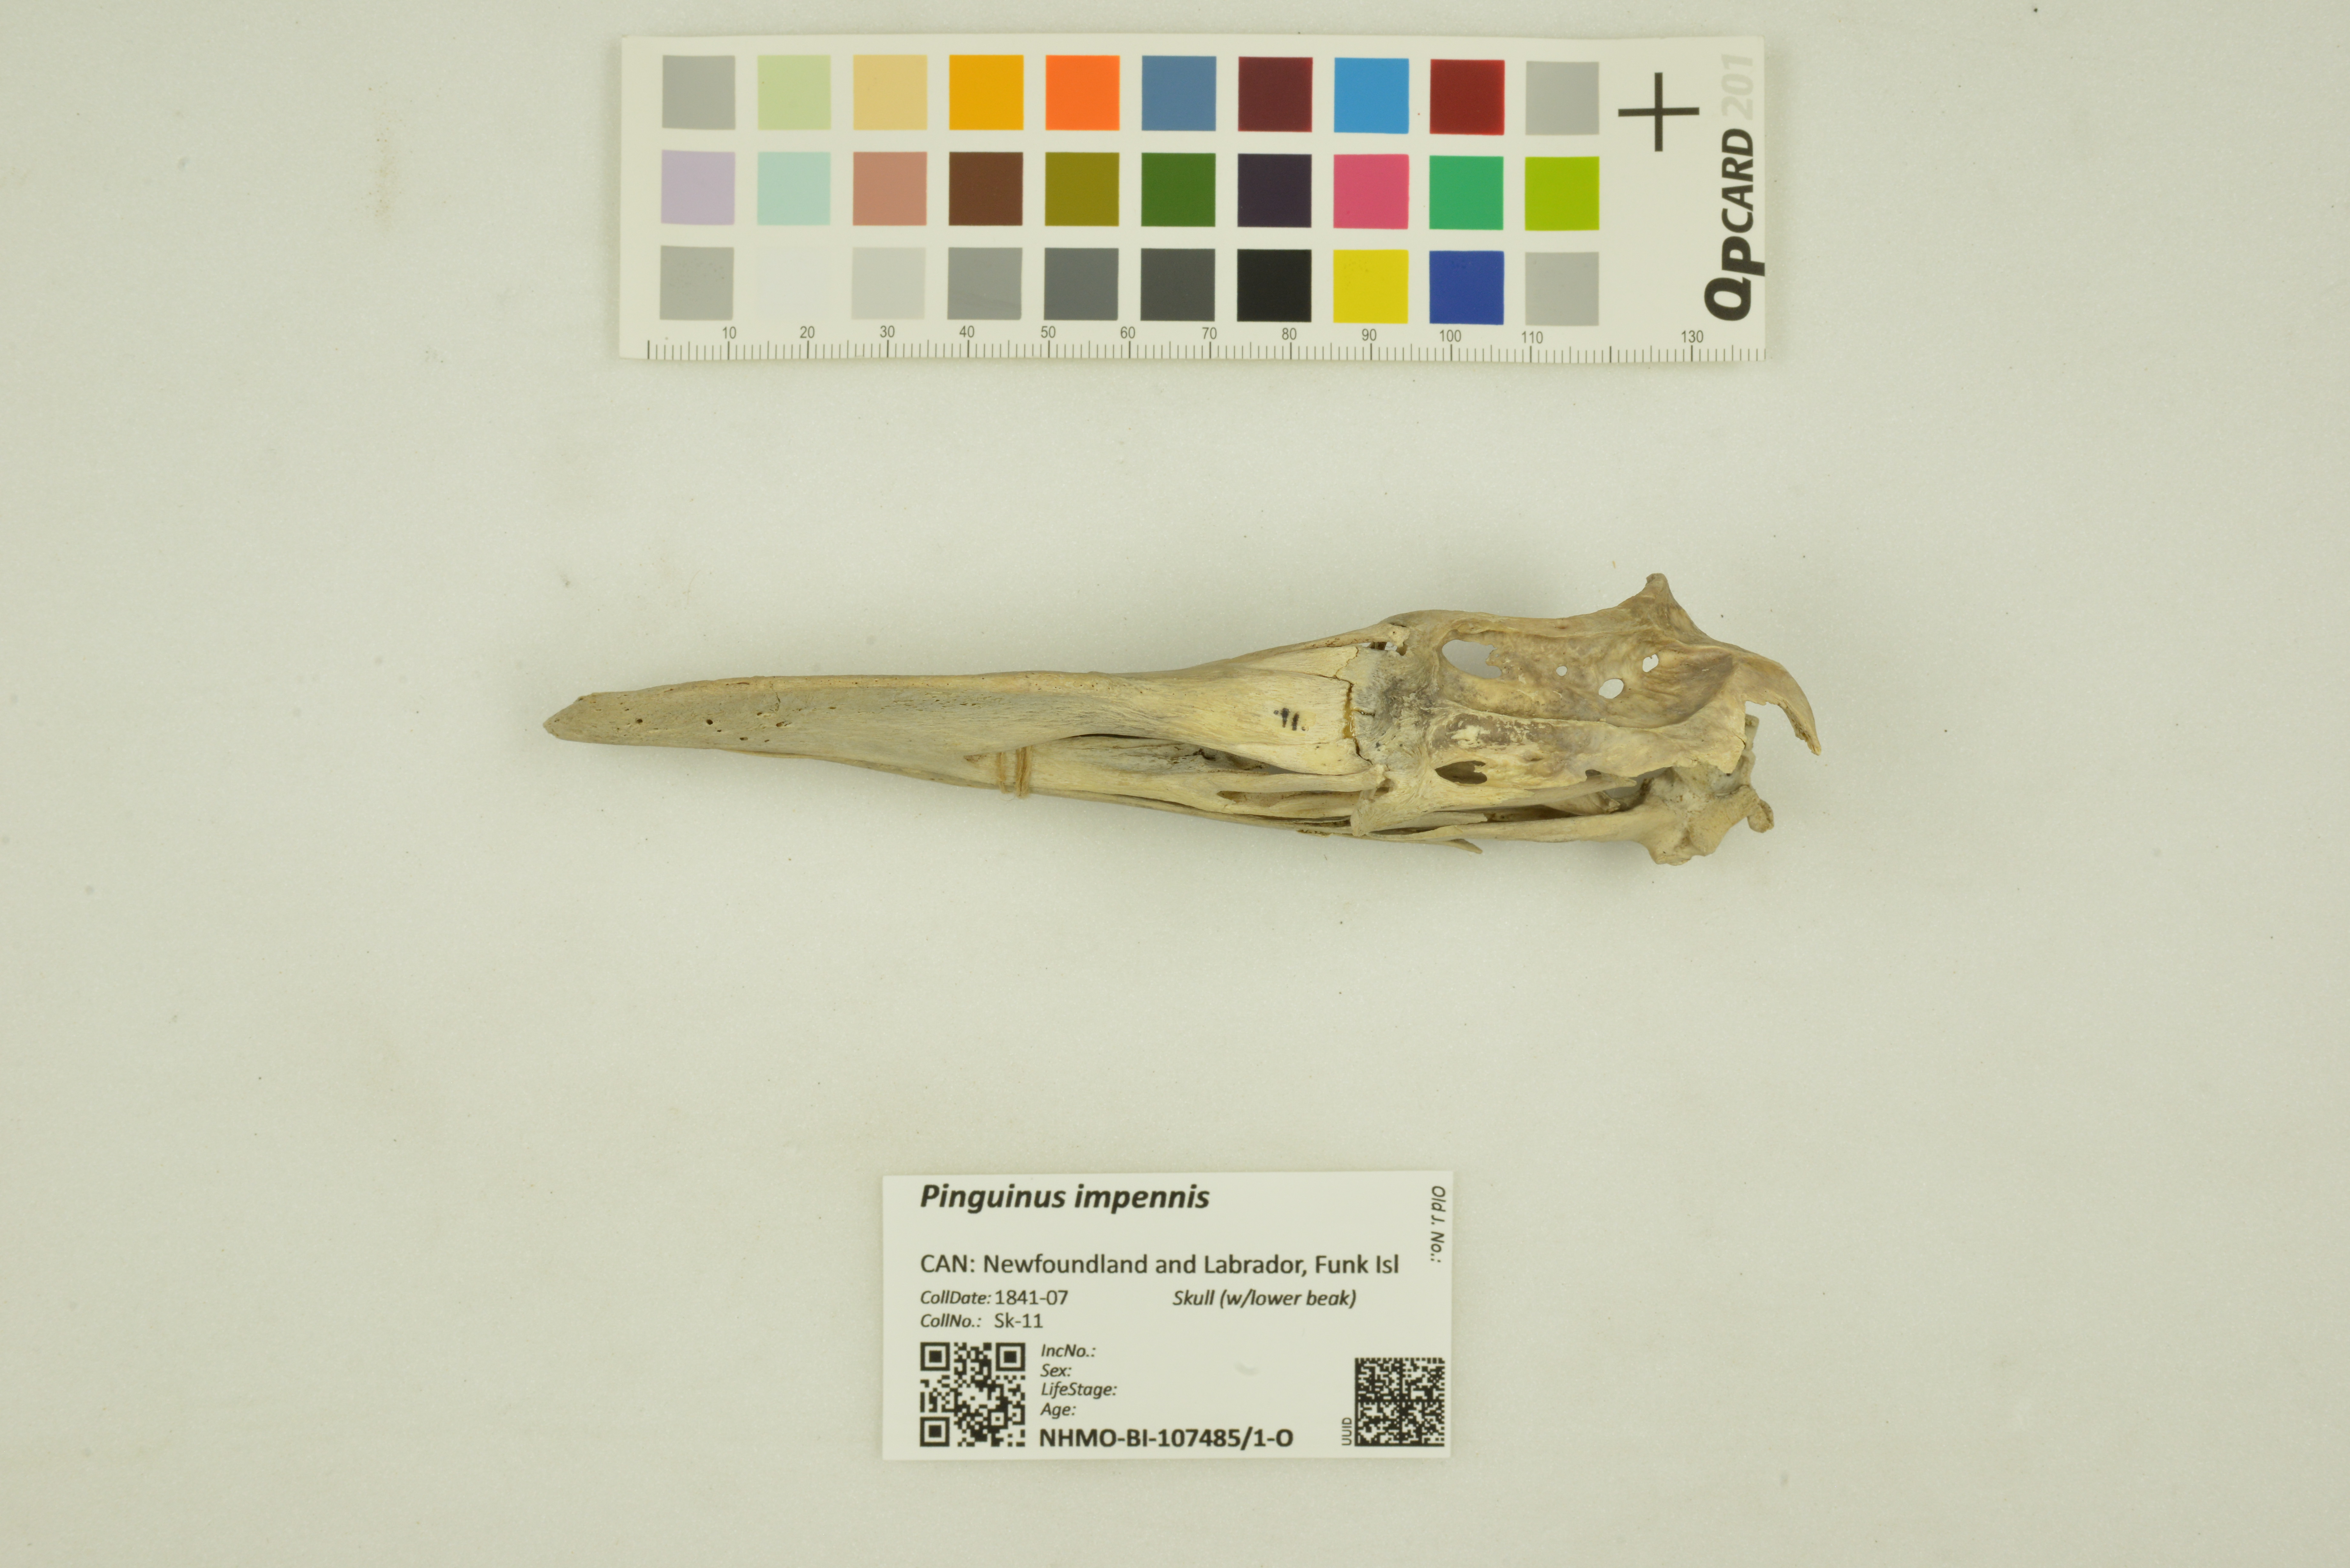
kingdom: Animalia
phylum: Chordata
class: Aves
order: Charadriiformes
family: Alcidae
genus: Pinguinus
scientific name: Pinguinus impennis
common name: Great auk
